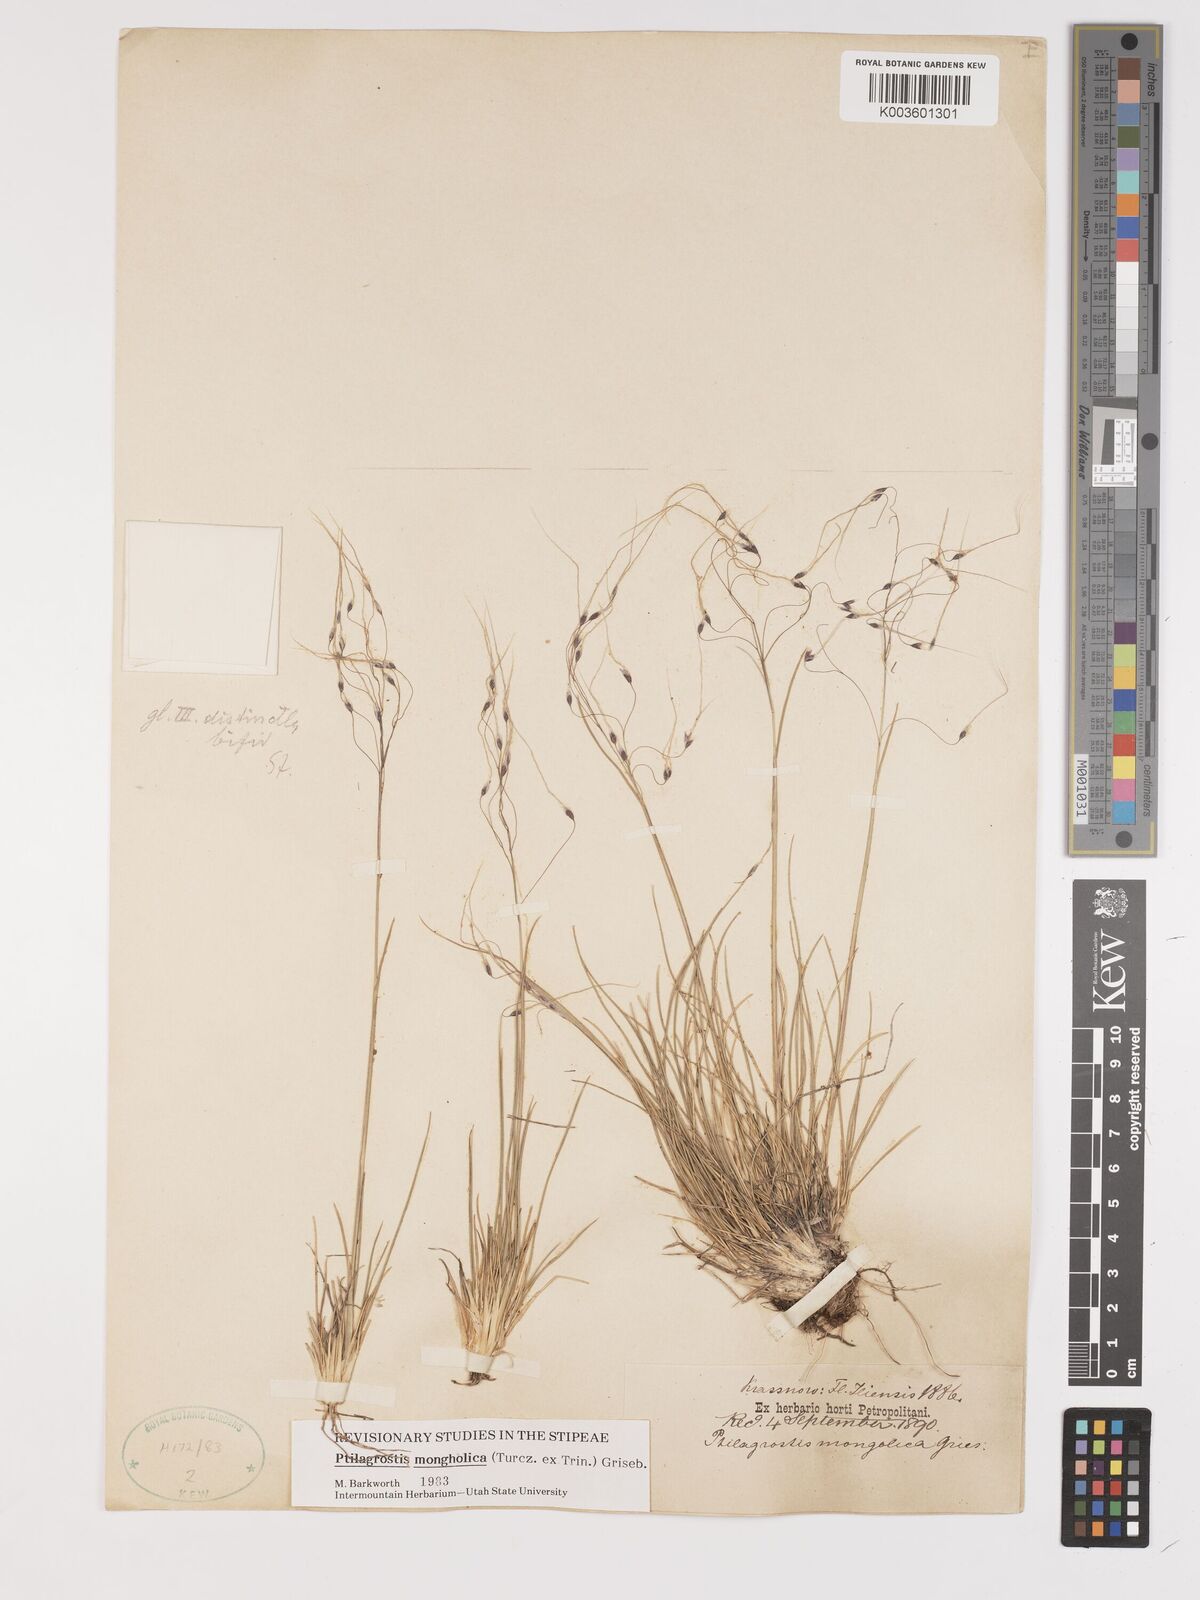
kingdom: Plantae
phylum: Tracheophyta
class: Liliopsida
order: Poales
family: Poaceae
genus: Ptilagrostis
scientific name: Ptilagrostis mongholica
